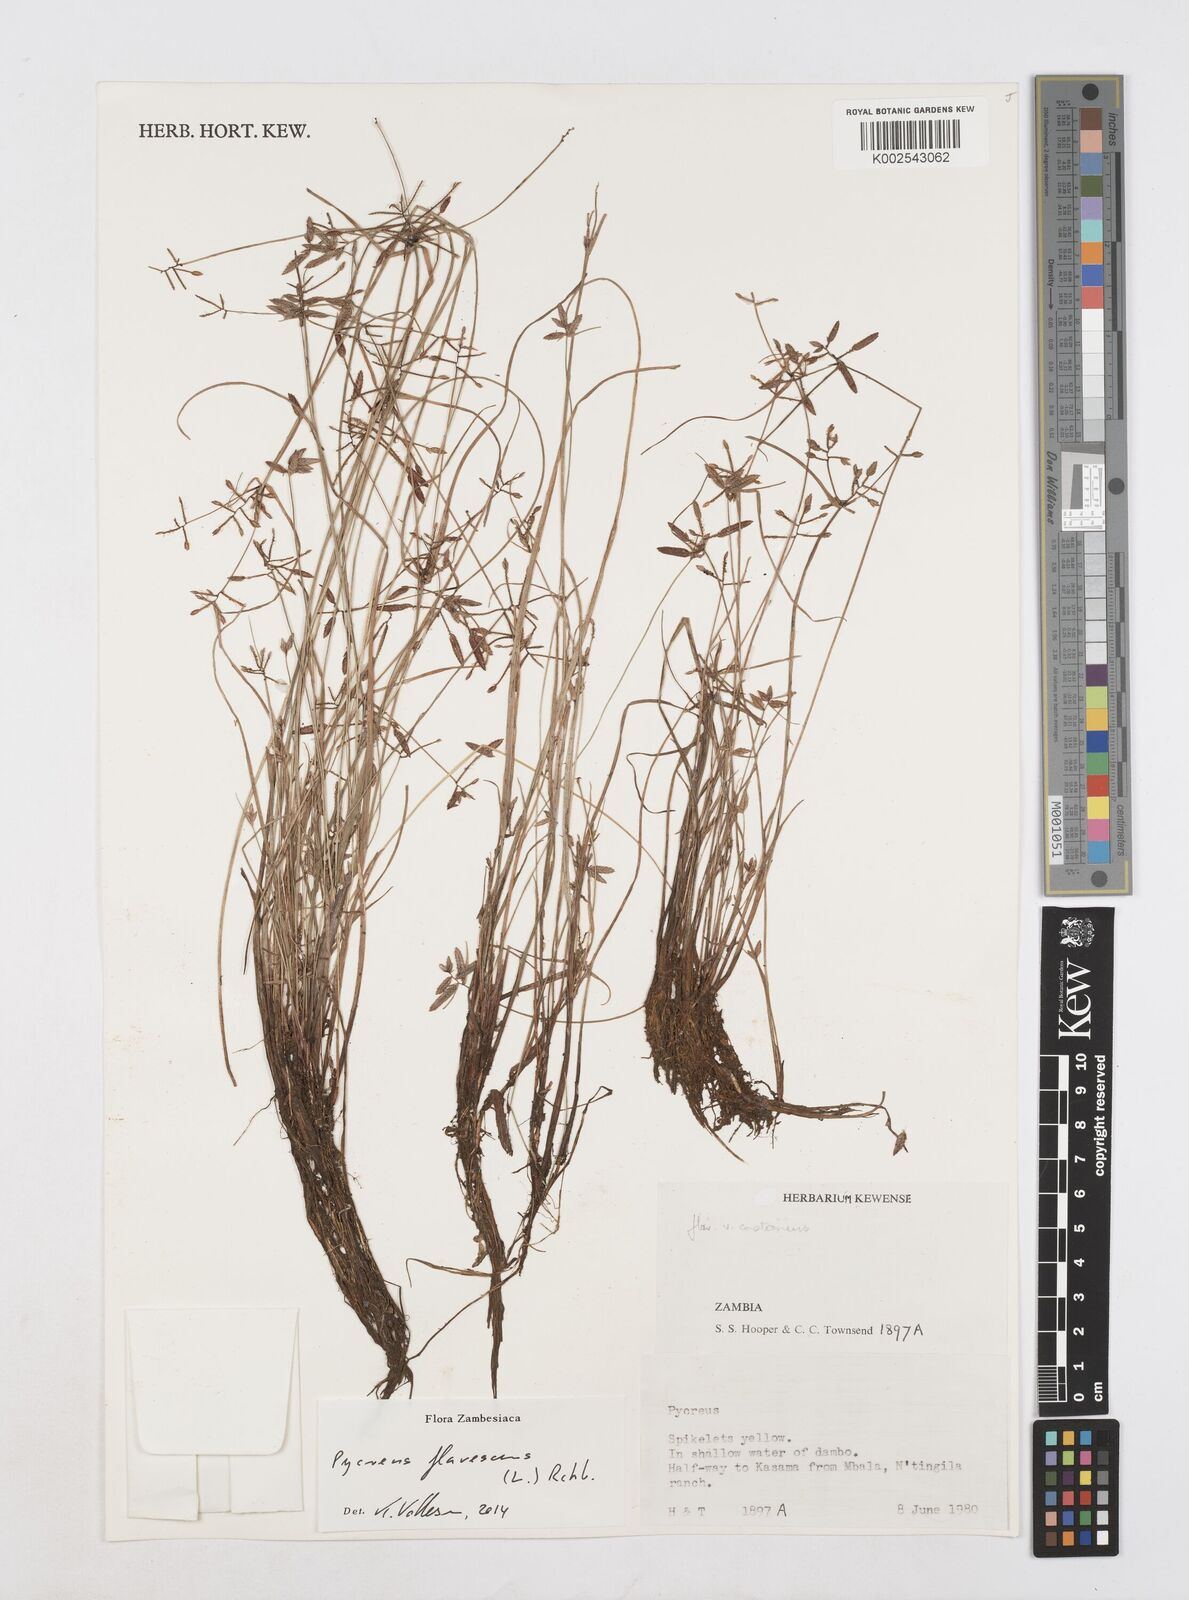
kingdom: Plantae
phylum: Tracheophyta
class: Liliopsida
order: Poales
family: Cyperaceae
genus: Cyperus
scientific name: Cyperus flavescens
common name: Yellow galingale
